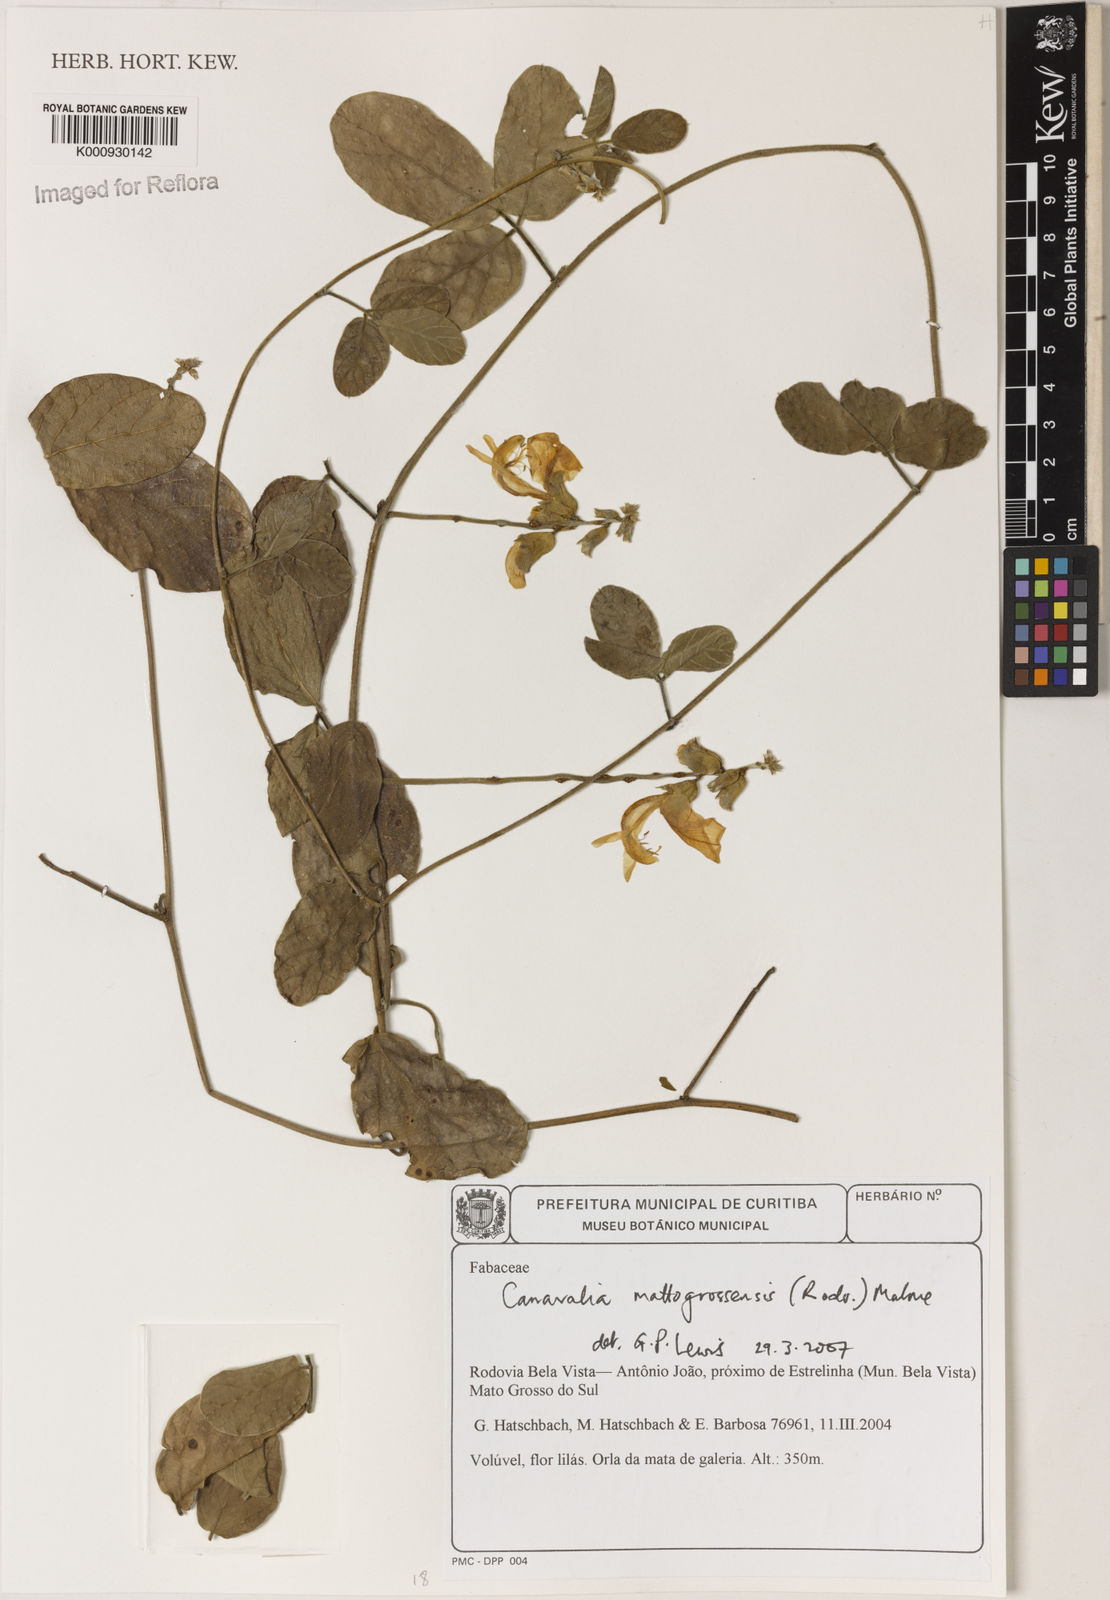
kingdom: Plantae
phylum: Tracheophyta
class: Magnoliopsida
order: Fabales
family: Fabaceae
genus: Canavalia
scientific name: Canavalia mattogrossensis
